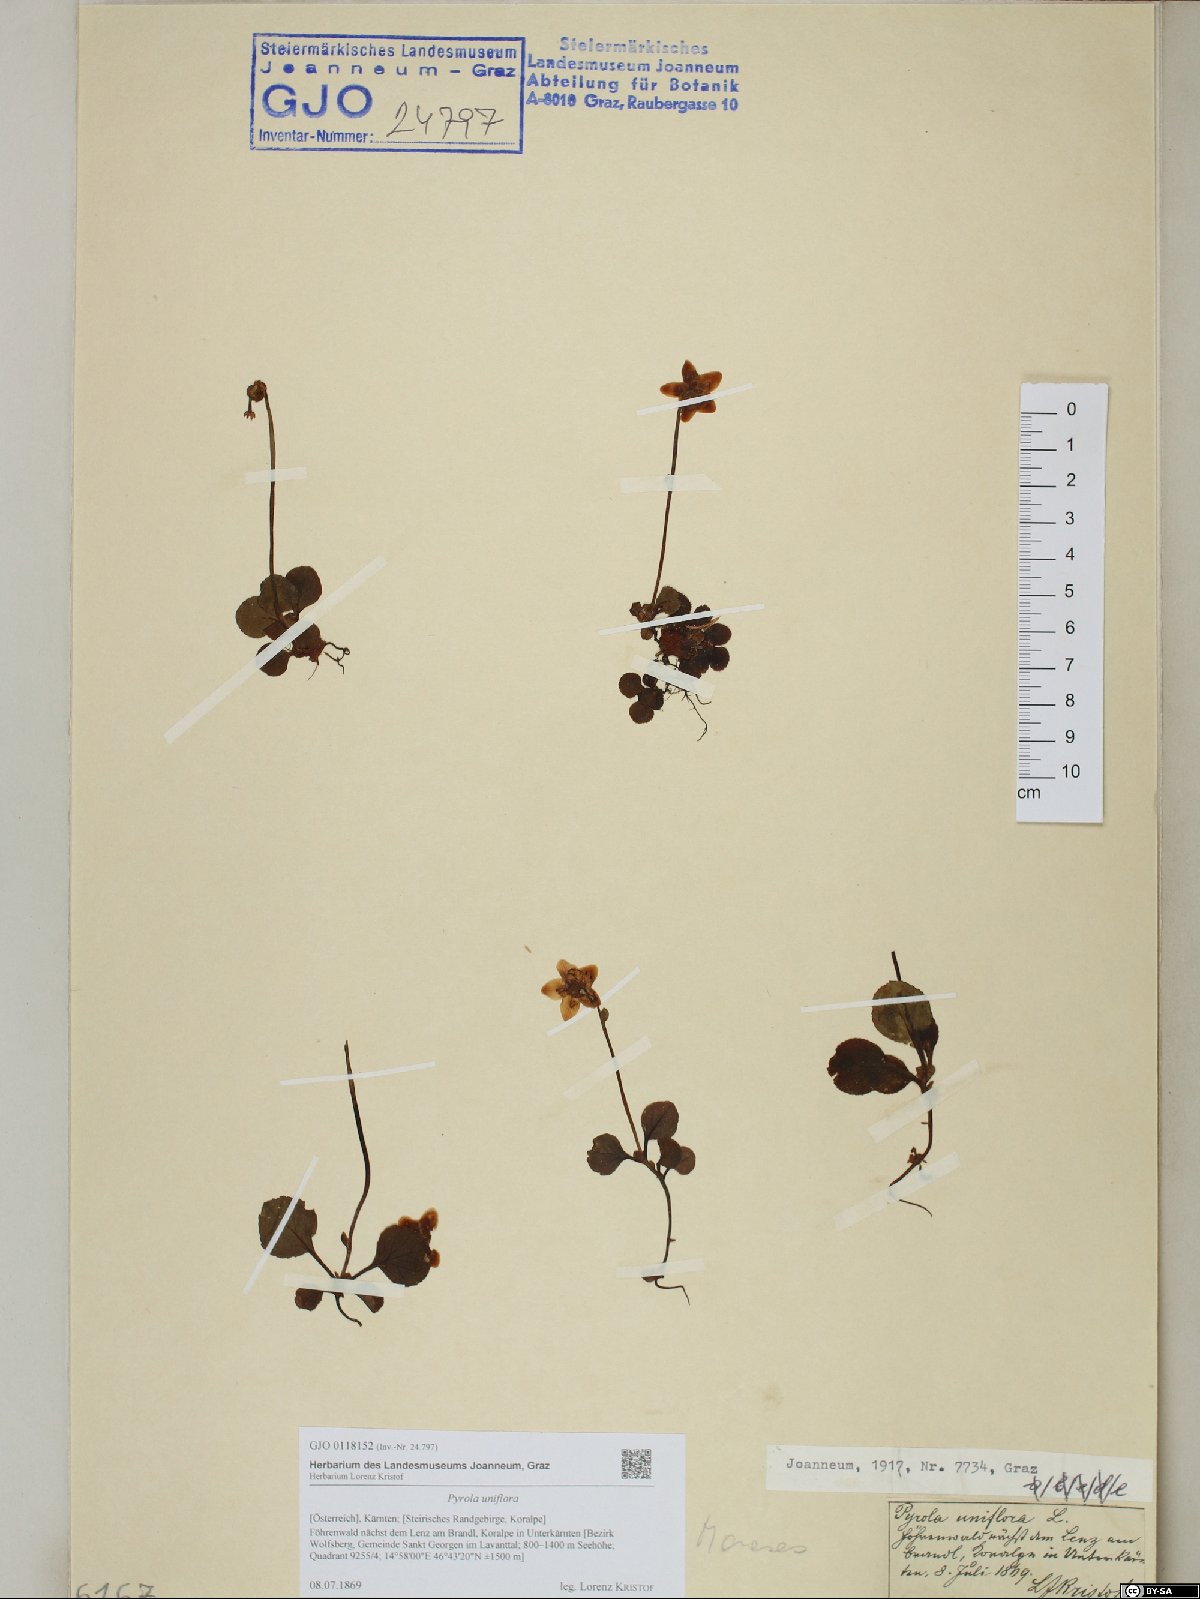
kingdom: Plantae
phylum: Tracheophyta
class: Magnoliopsida
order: Ericales
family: Ericaceae
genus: Moneses
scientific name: Moneses uniflora
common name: One-flowered wintergreen
